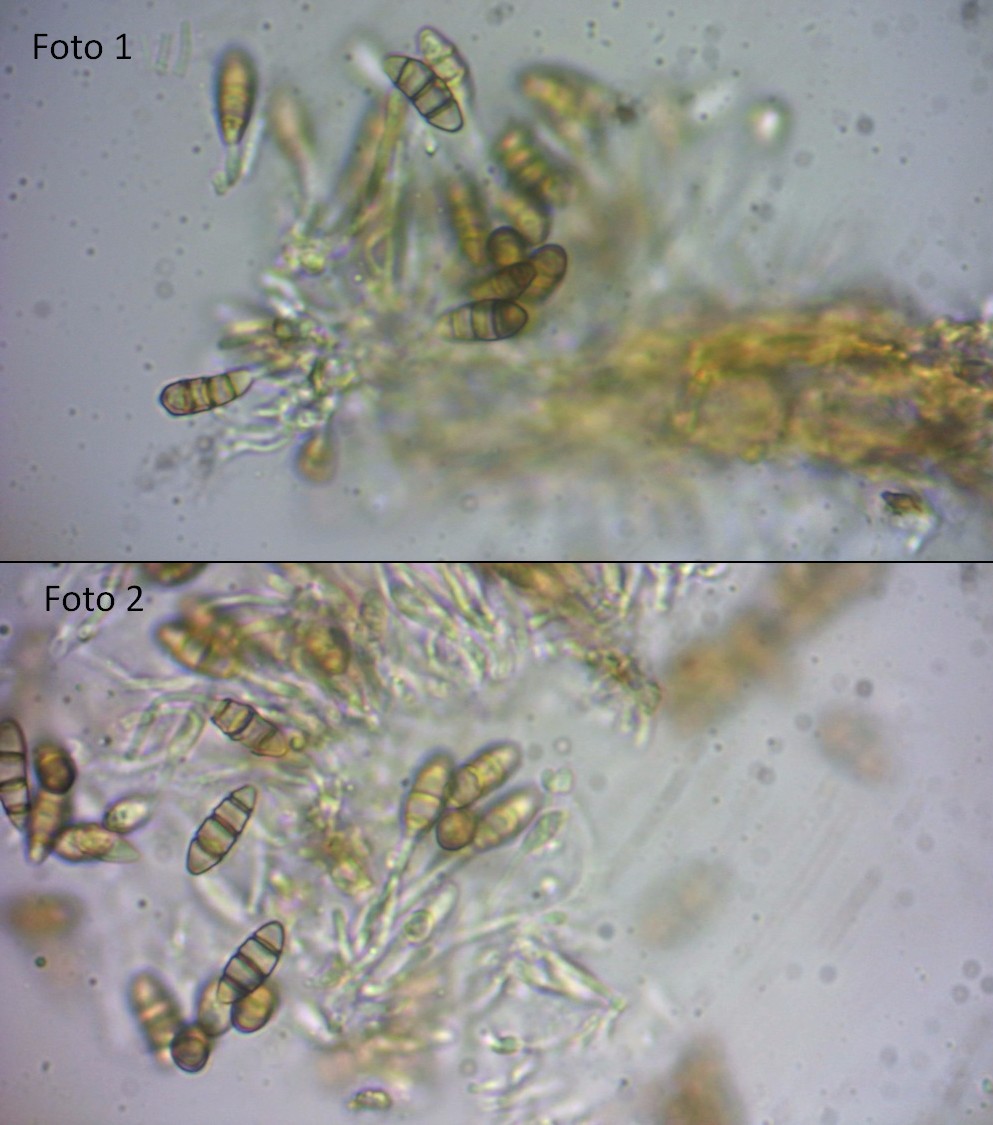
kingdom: Fungi
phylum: Ascomycota
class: Sordariomycetes
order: Amphisphaeriales
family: Sporocadaceae
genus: Seimatosporium
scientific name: Seimatosporium hypericinum
